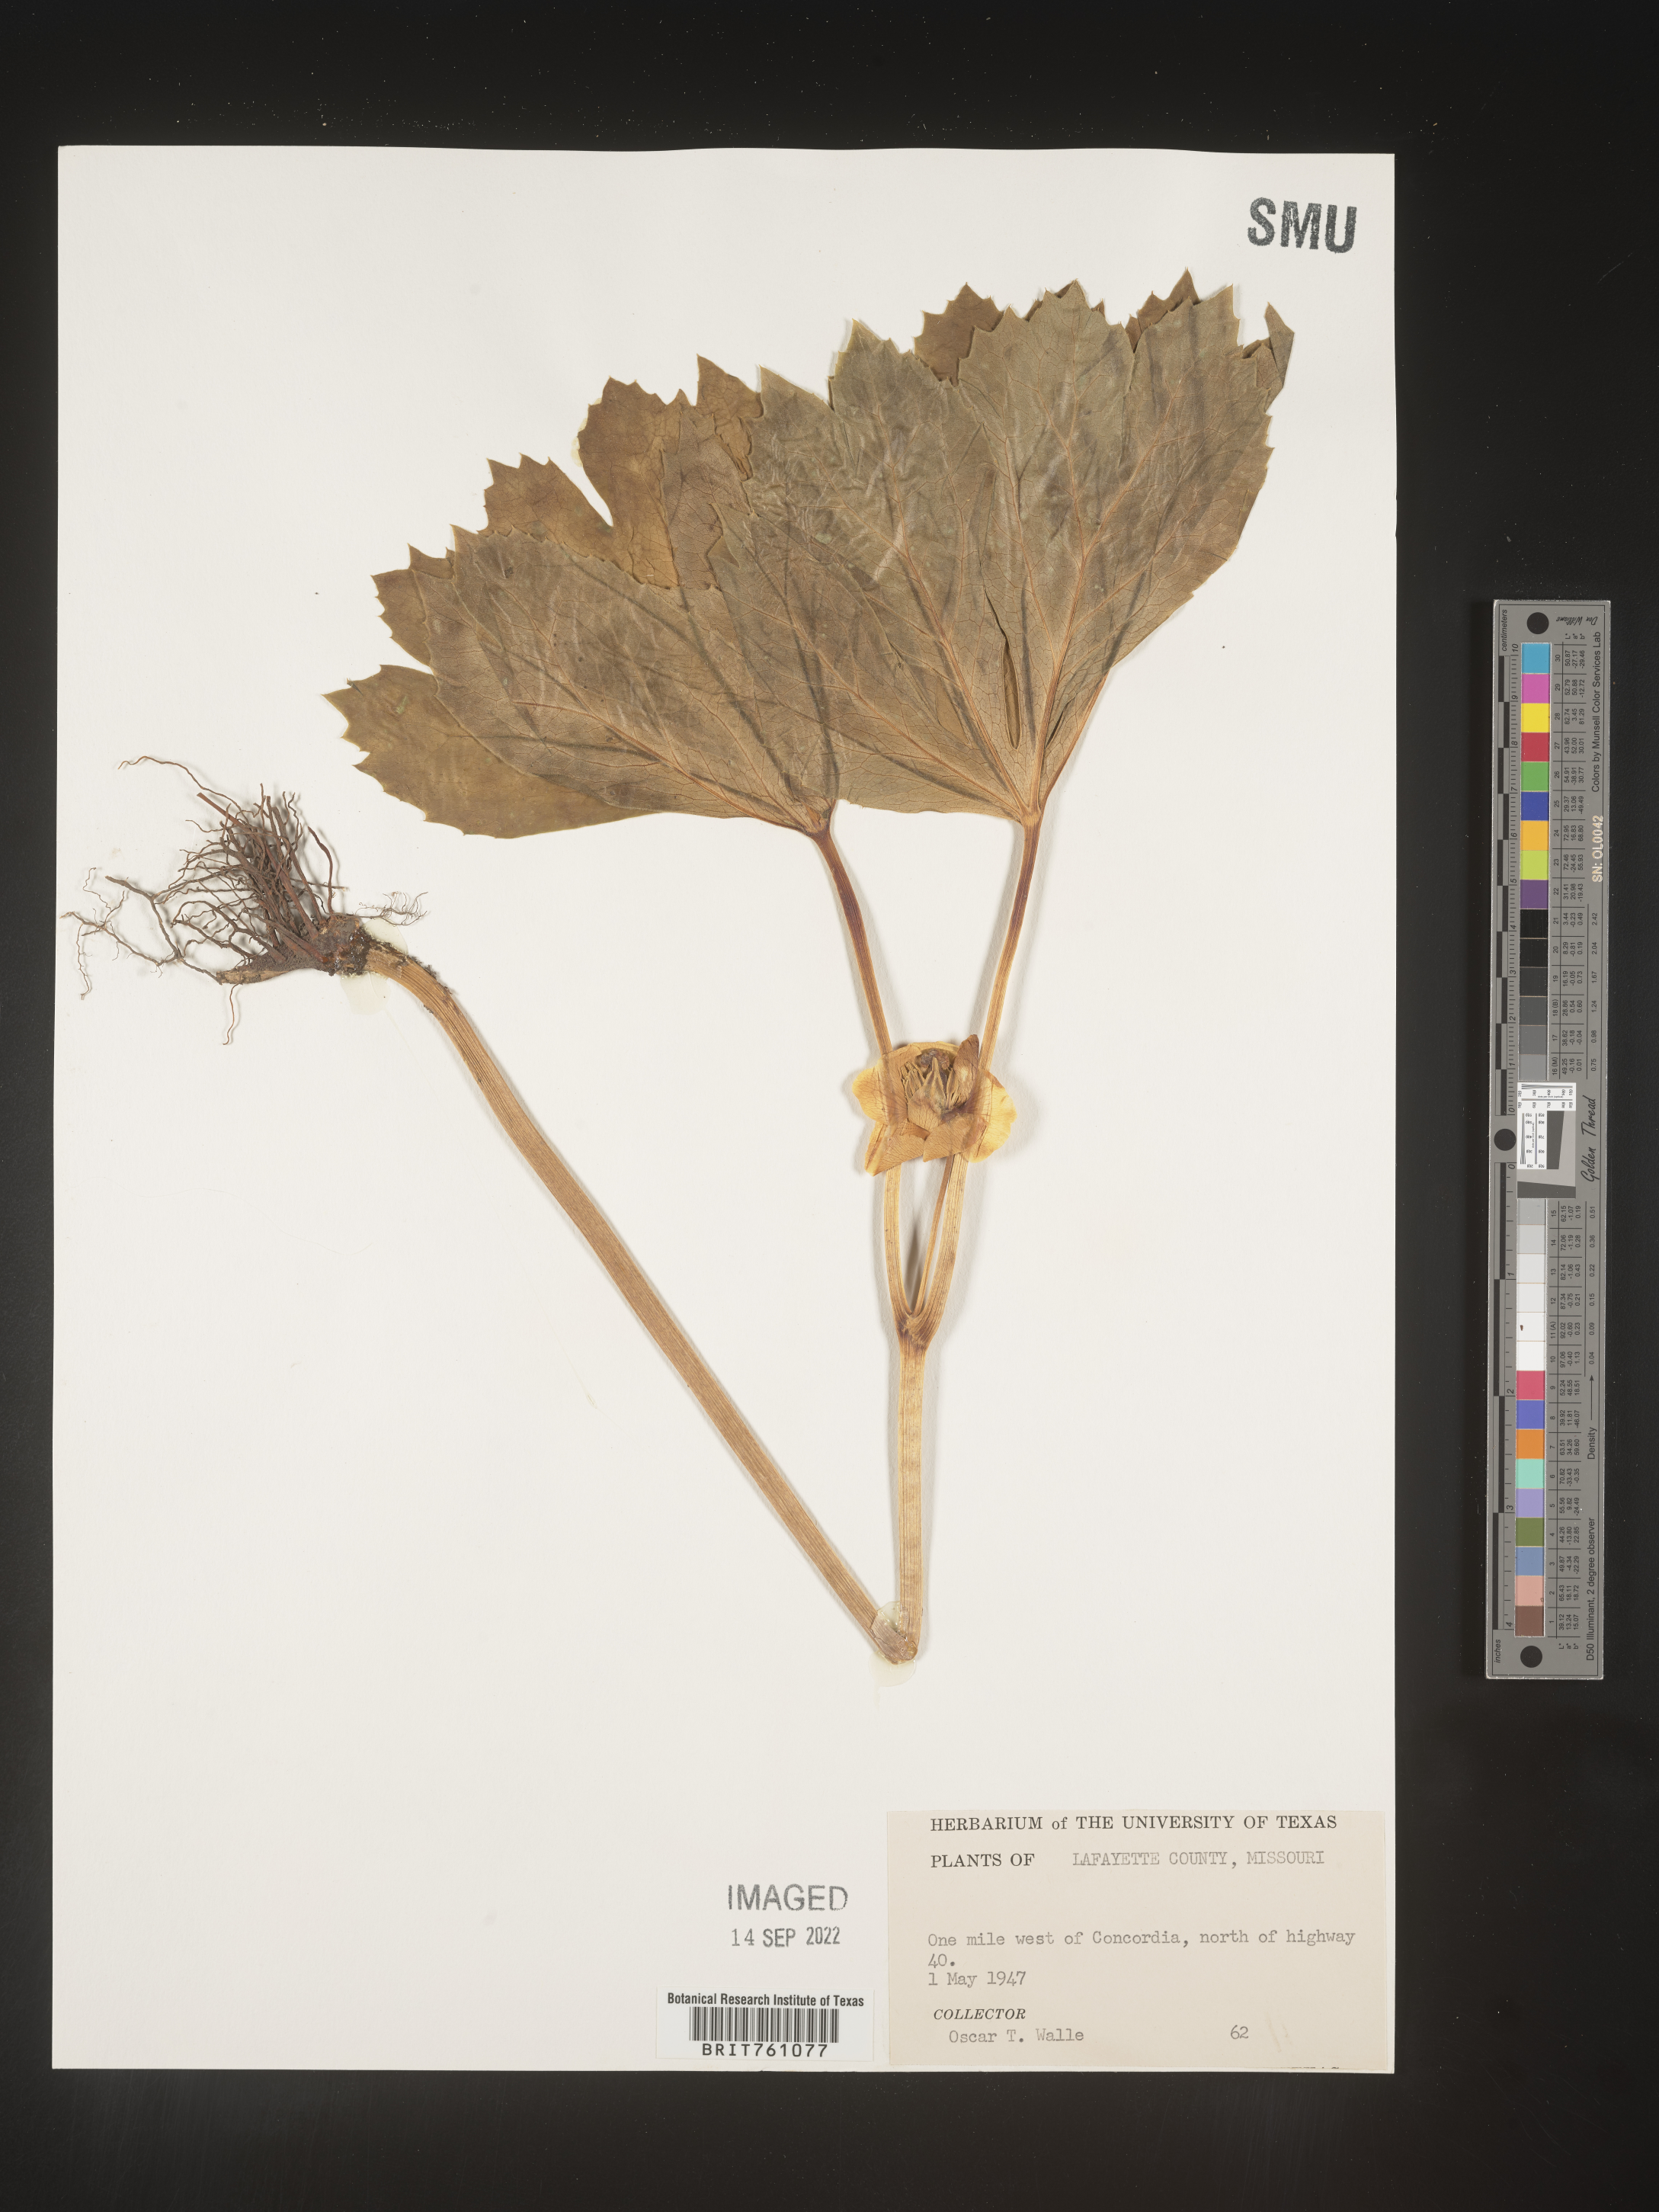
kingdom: Plantae
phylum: Tracheophyta
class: Magnoliopsida
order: Ranunculales
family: Berberidaceae
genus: Podophyllum
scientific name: Podophyllum peltatum
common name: Wild mandrake
